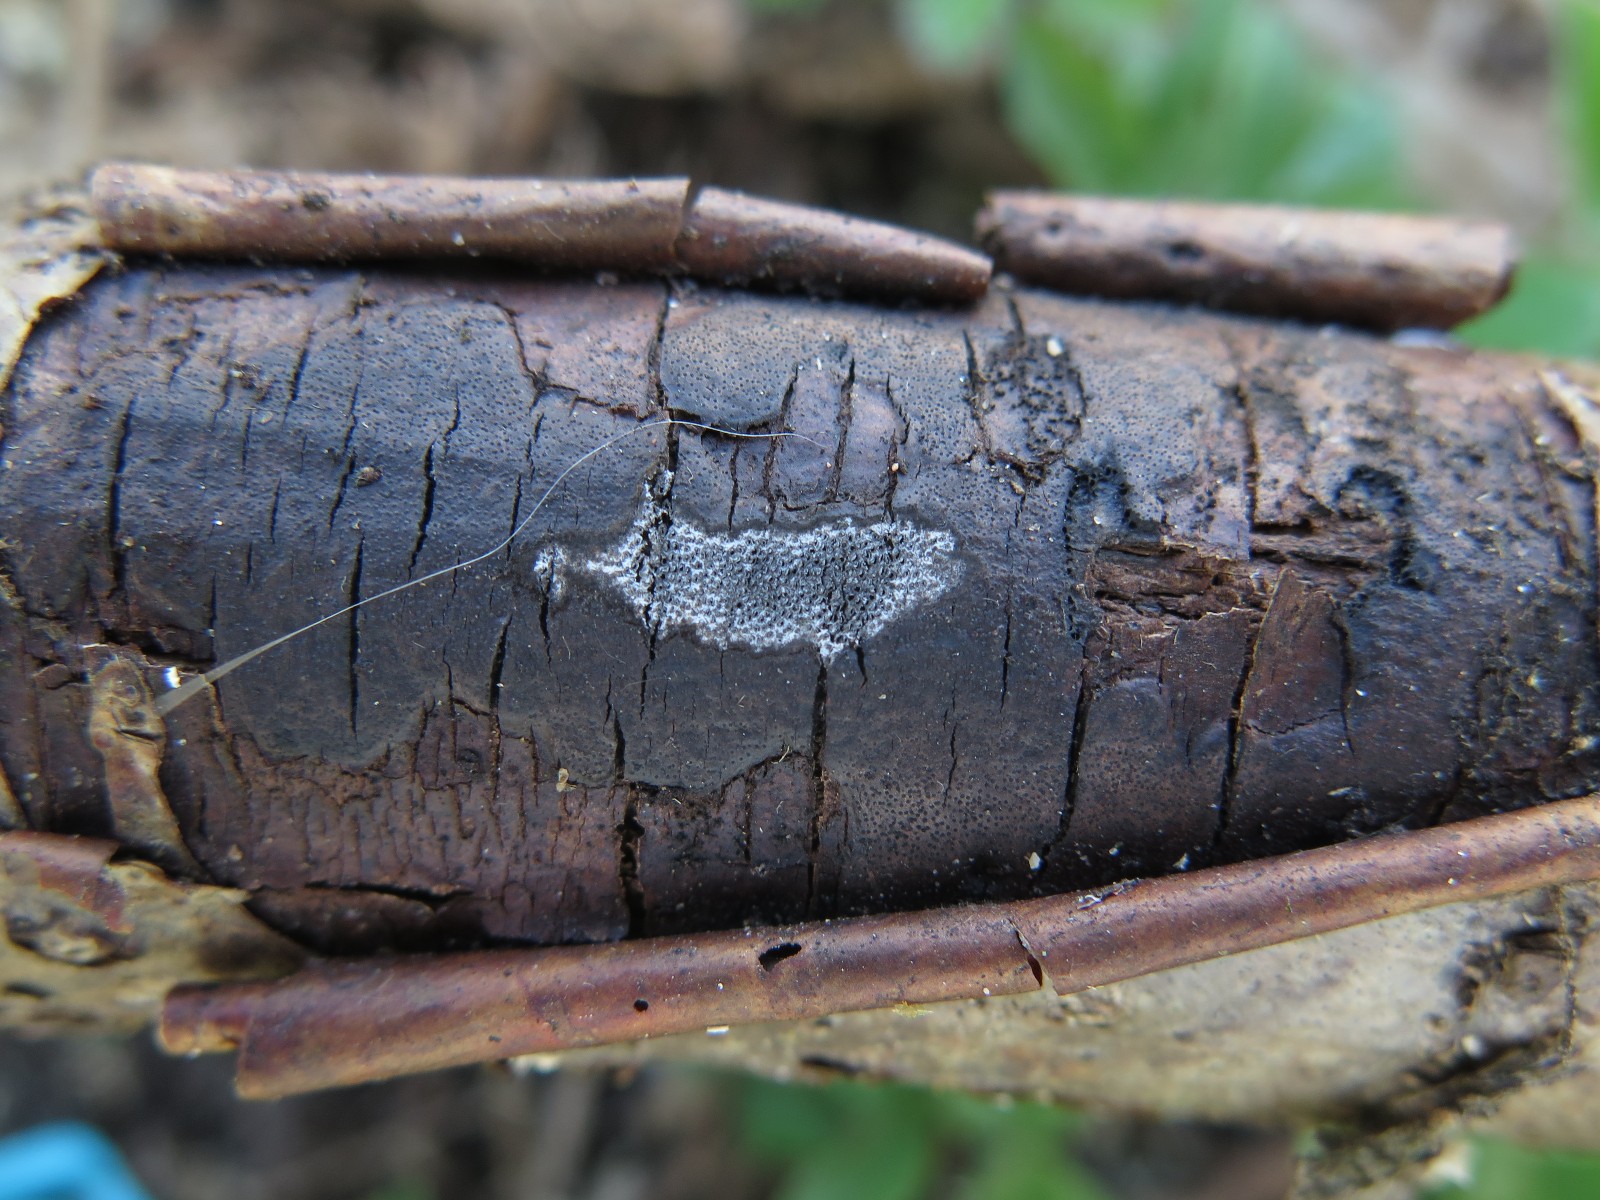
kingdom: Fungi
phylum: Ascomycota
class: Sordariomycetes
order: Xylariales
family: Diatrypaceae
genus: Diatrype
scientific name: Diatrype stigma
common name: udbredt kulskorpe
